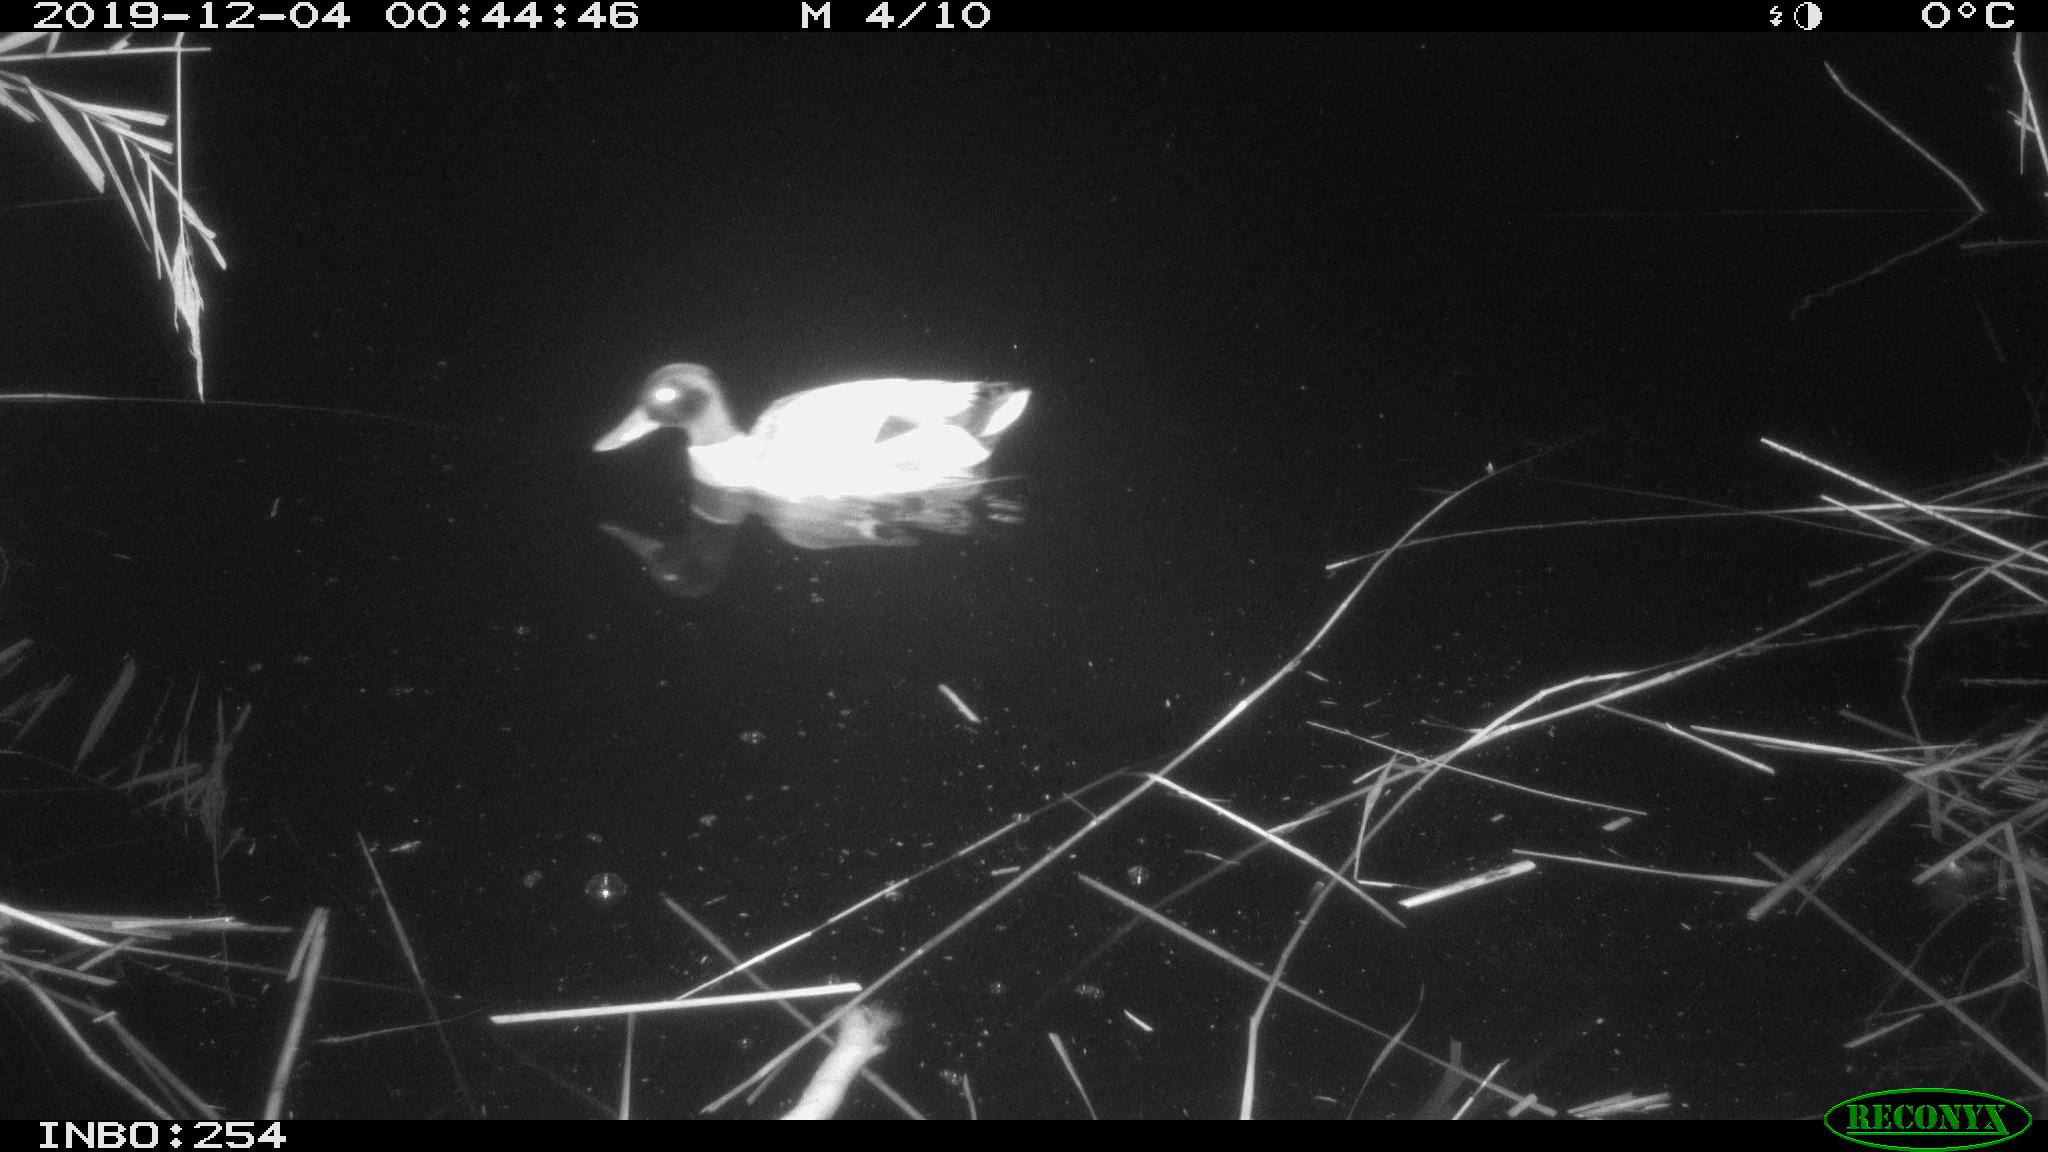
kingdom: Animalia
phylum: Chordata
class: Aves
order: Anseriformes
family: Anatidae
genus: Anas
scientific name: Anas platyrhynchos
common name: Mallard
